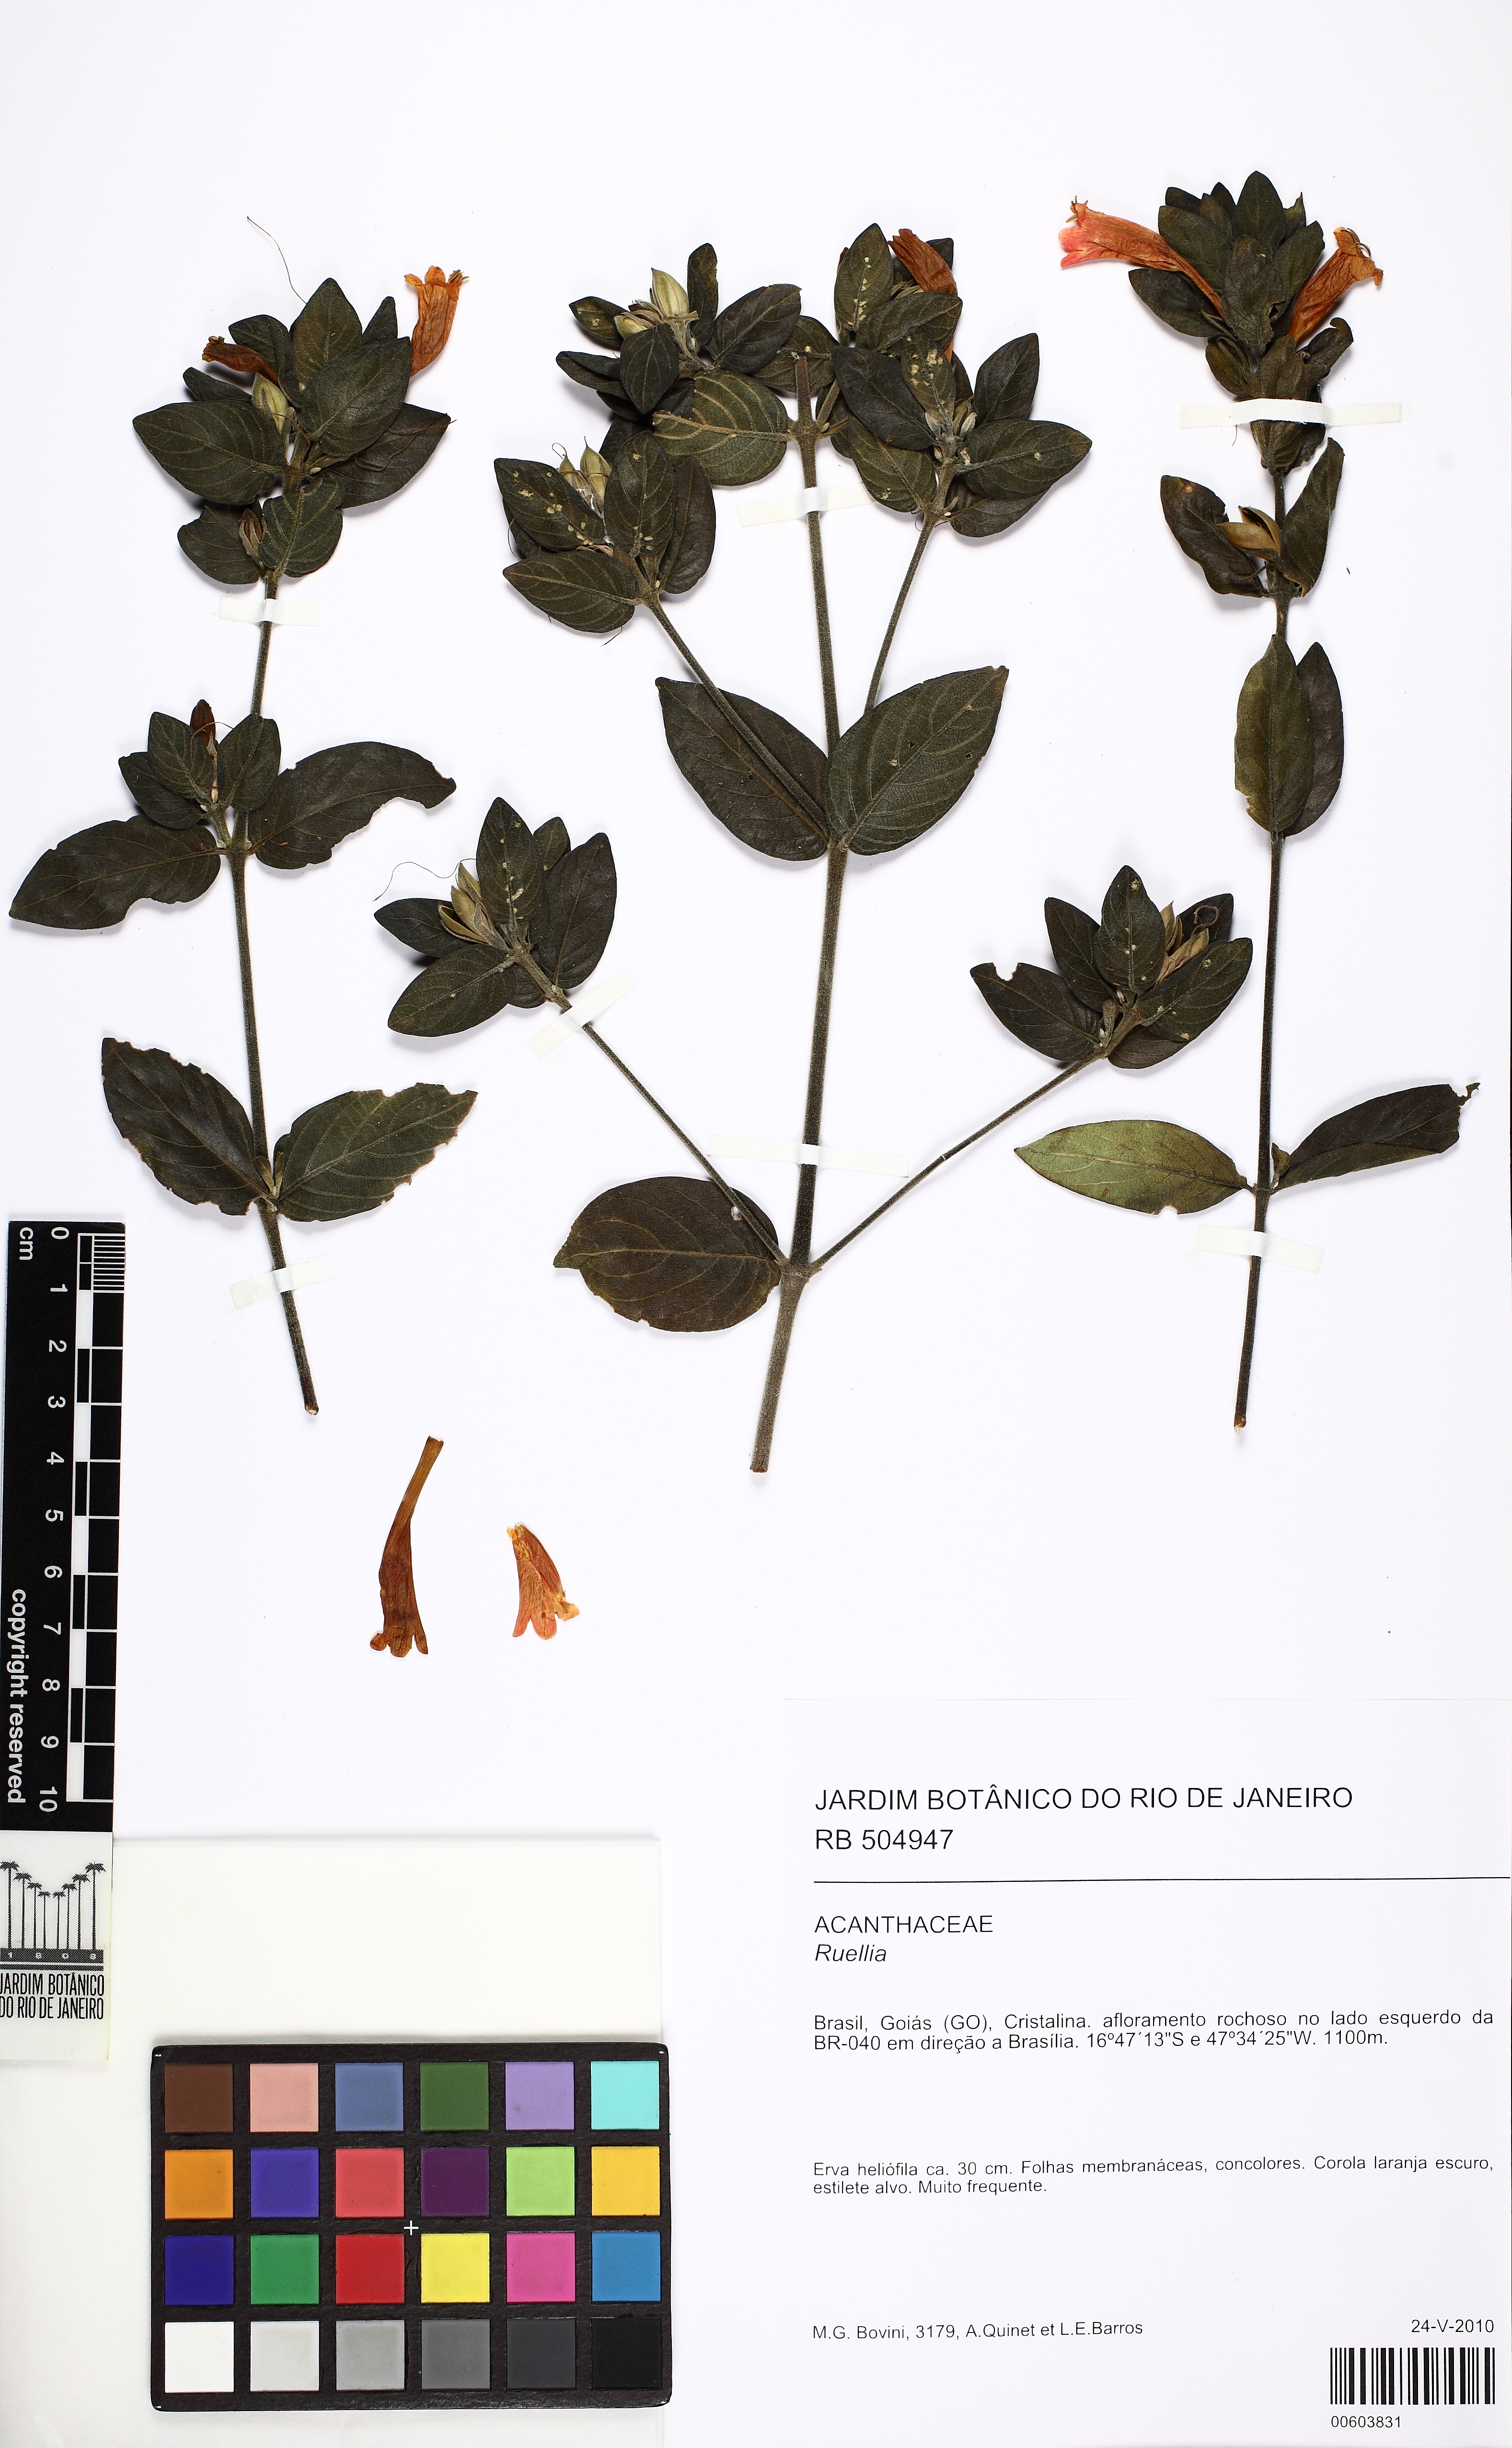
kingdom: Plantae
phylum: Tracheophyta
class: Magnoliopsida
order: Lamiales
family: Acanthaceae
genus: Ruellia
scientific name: Ruellia
